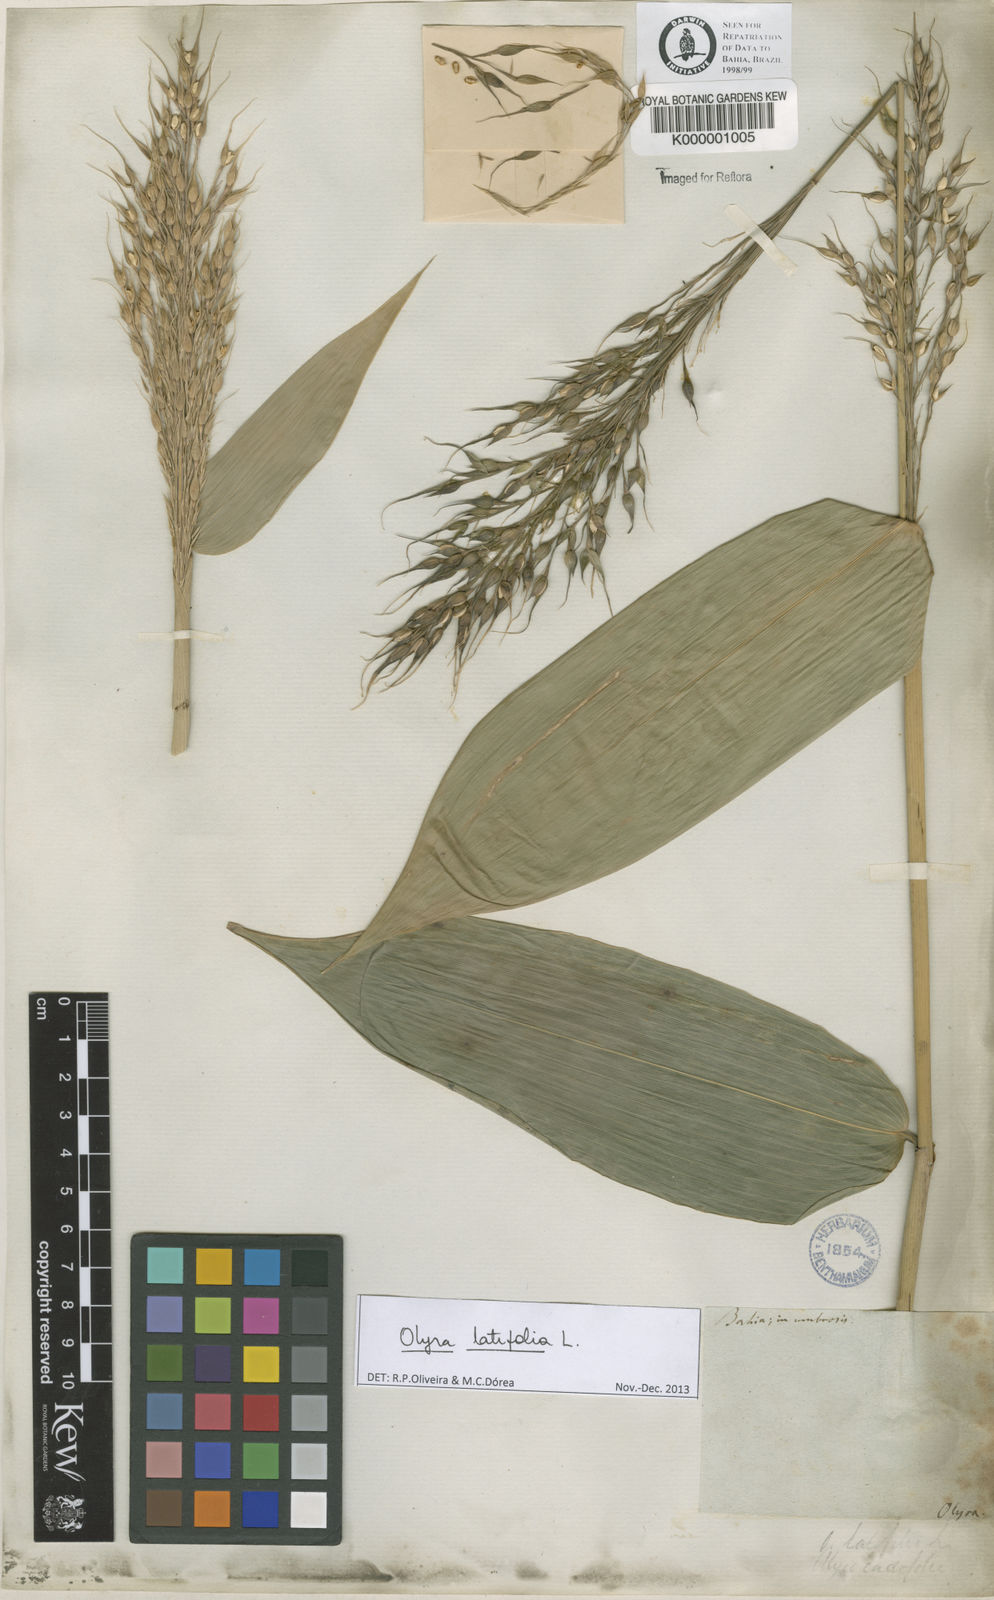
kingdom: Plantae
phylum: Tracheophyta
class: Liliopsida
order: Poales
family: Poaceae
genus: Olyra
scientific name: Olyra latifolia
